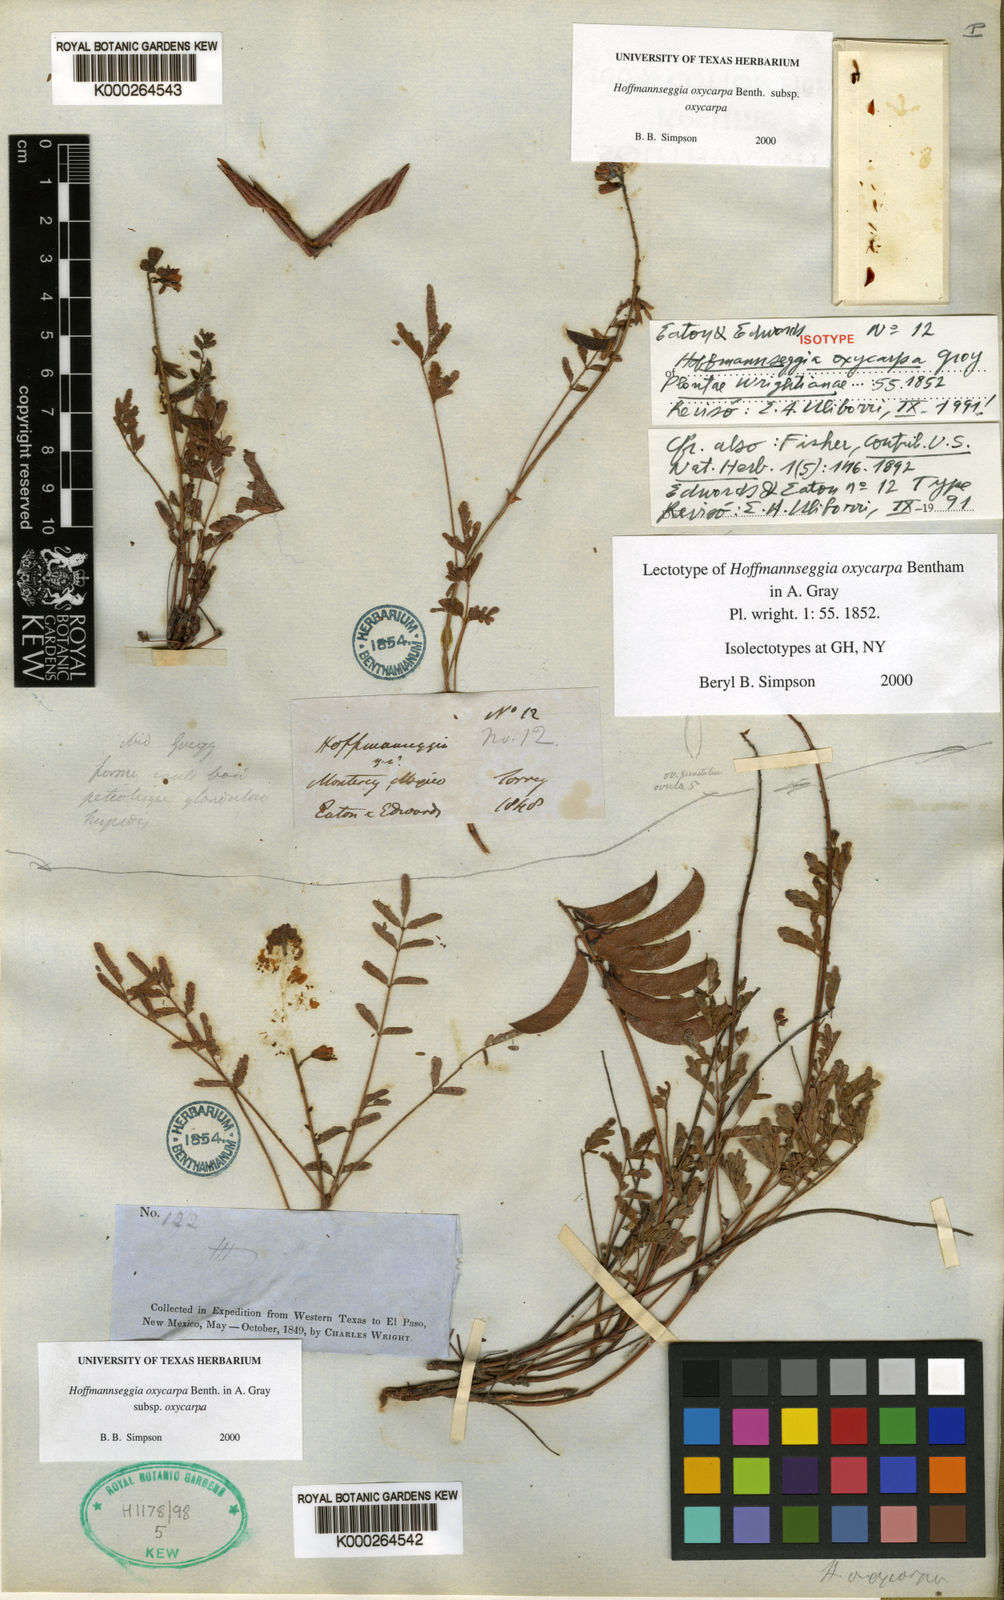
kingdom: Plantae
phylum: Tracheophyta
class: Magnoliopsida
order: Fabales
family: Fabaceae
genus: Hoffmannseggia
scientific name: Hoffmannseggia oxycarpa
